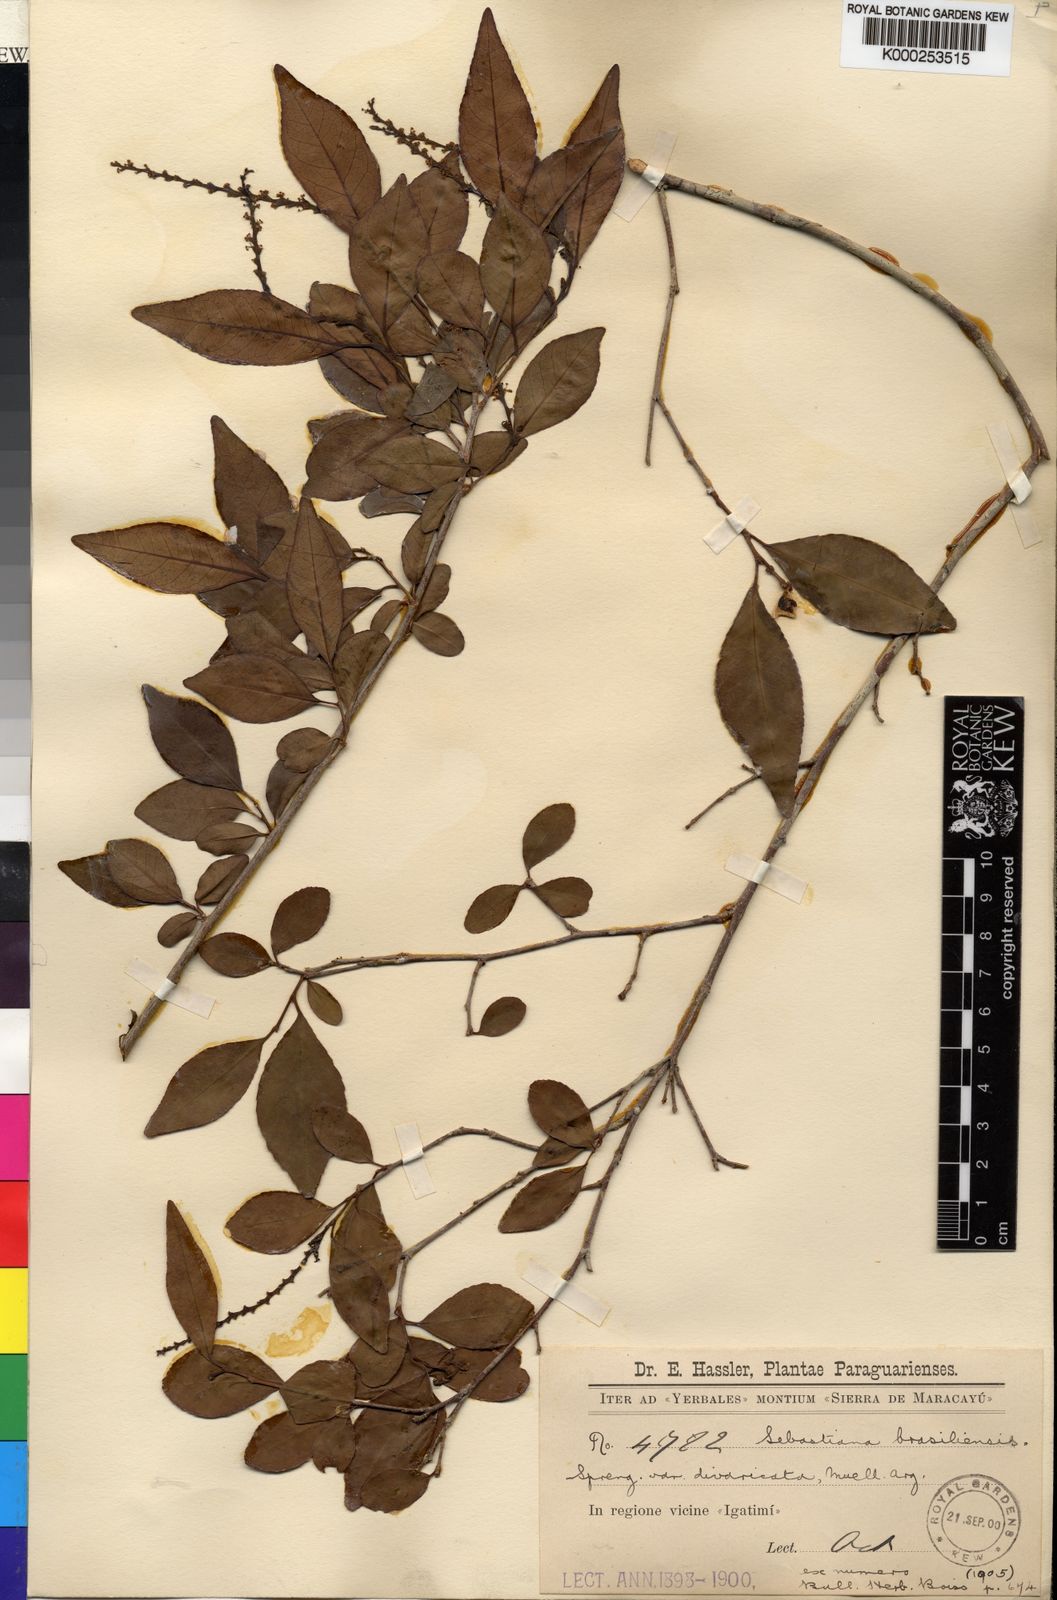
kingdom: Plantae
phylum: Tracheophyta
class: Magnoliopsida
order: Malpighiales
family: Euphorbiaceae
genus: Sebastiania
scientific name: Sebastiania brasiliensis
